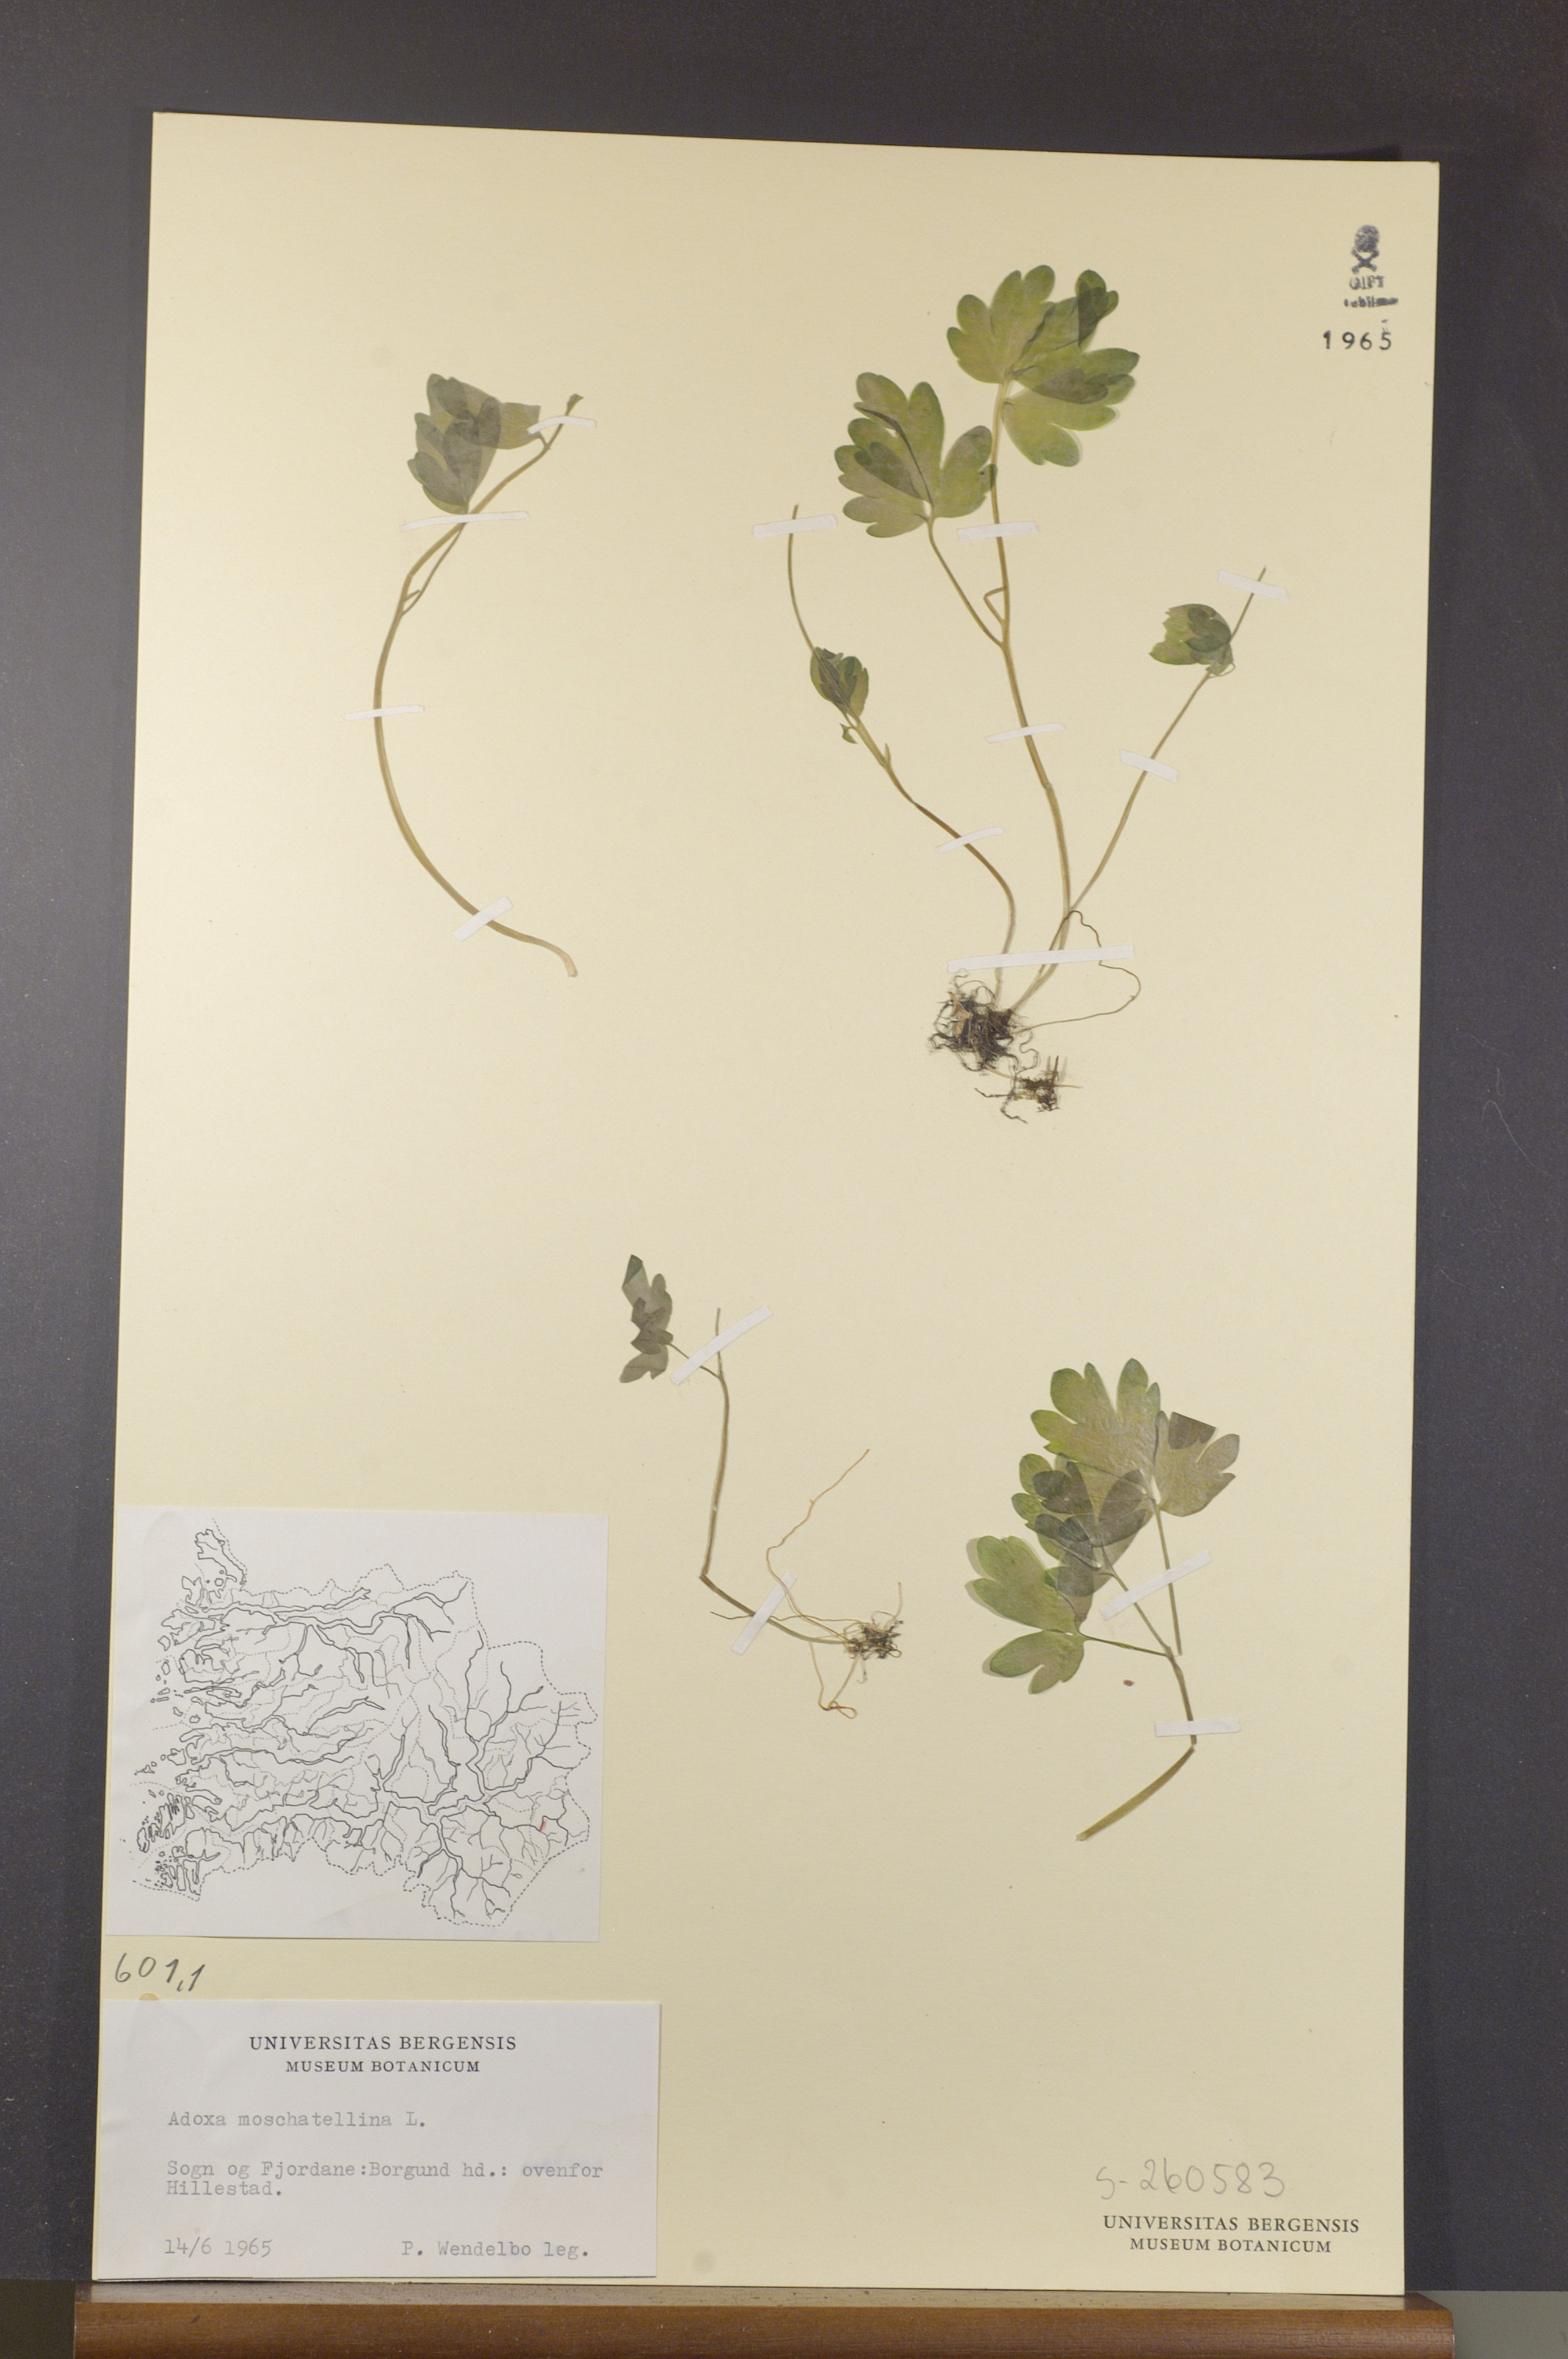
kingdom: Plantae
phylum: Tracheophyta
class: Magnoliopsida
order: Dipsacales
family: Viburnaceae
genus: Adoxa
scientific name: Adoxa moschatellina
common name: Moschatel
